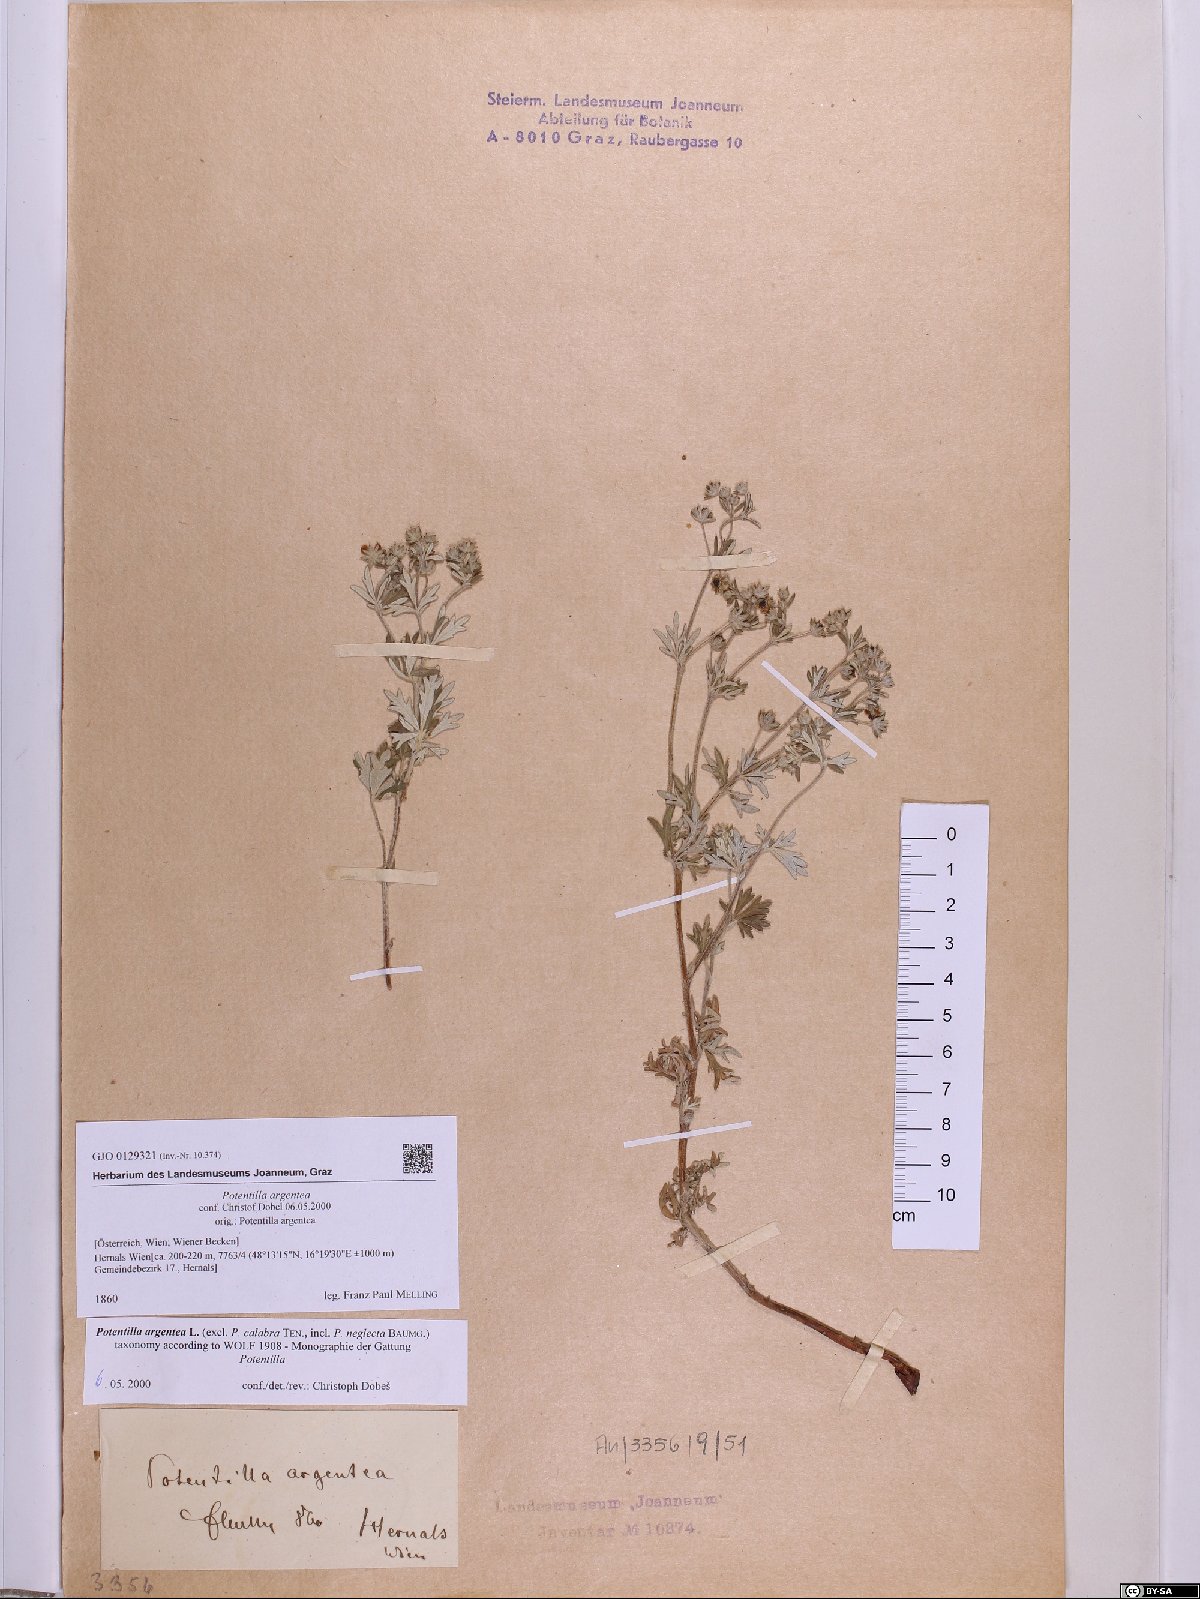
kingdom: Plantae
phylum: Tracheophyta
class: Magnoliopsida
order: Rosales
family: Rosaceae
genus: Potentilla
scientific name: Potentilla argentea
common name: Hoary cinquefoil
